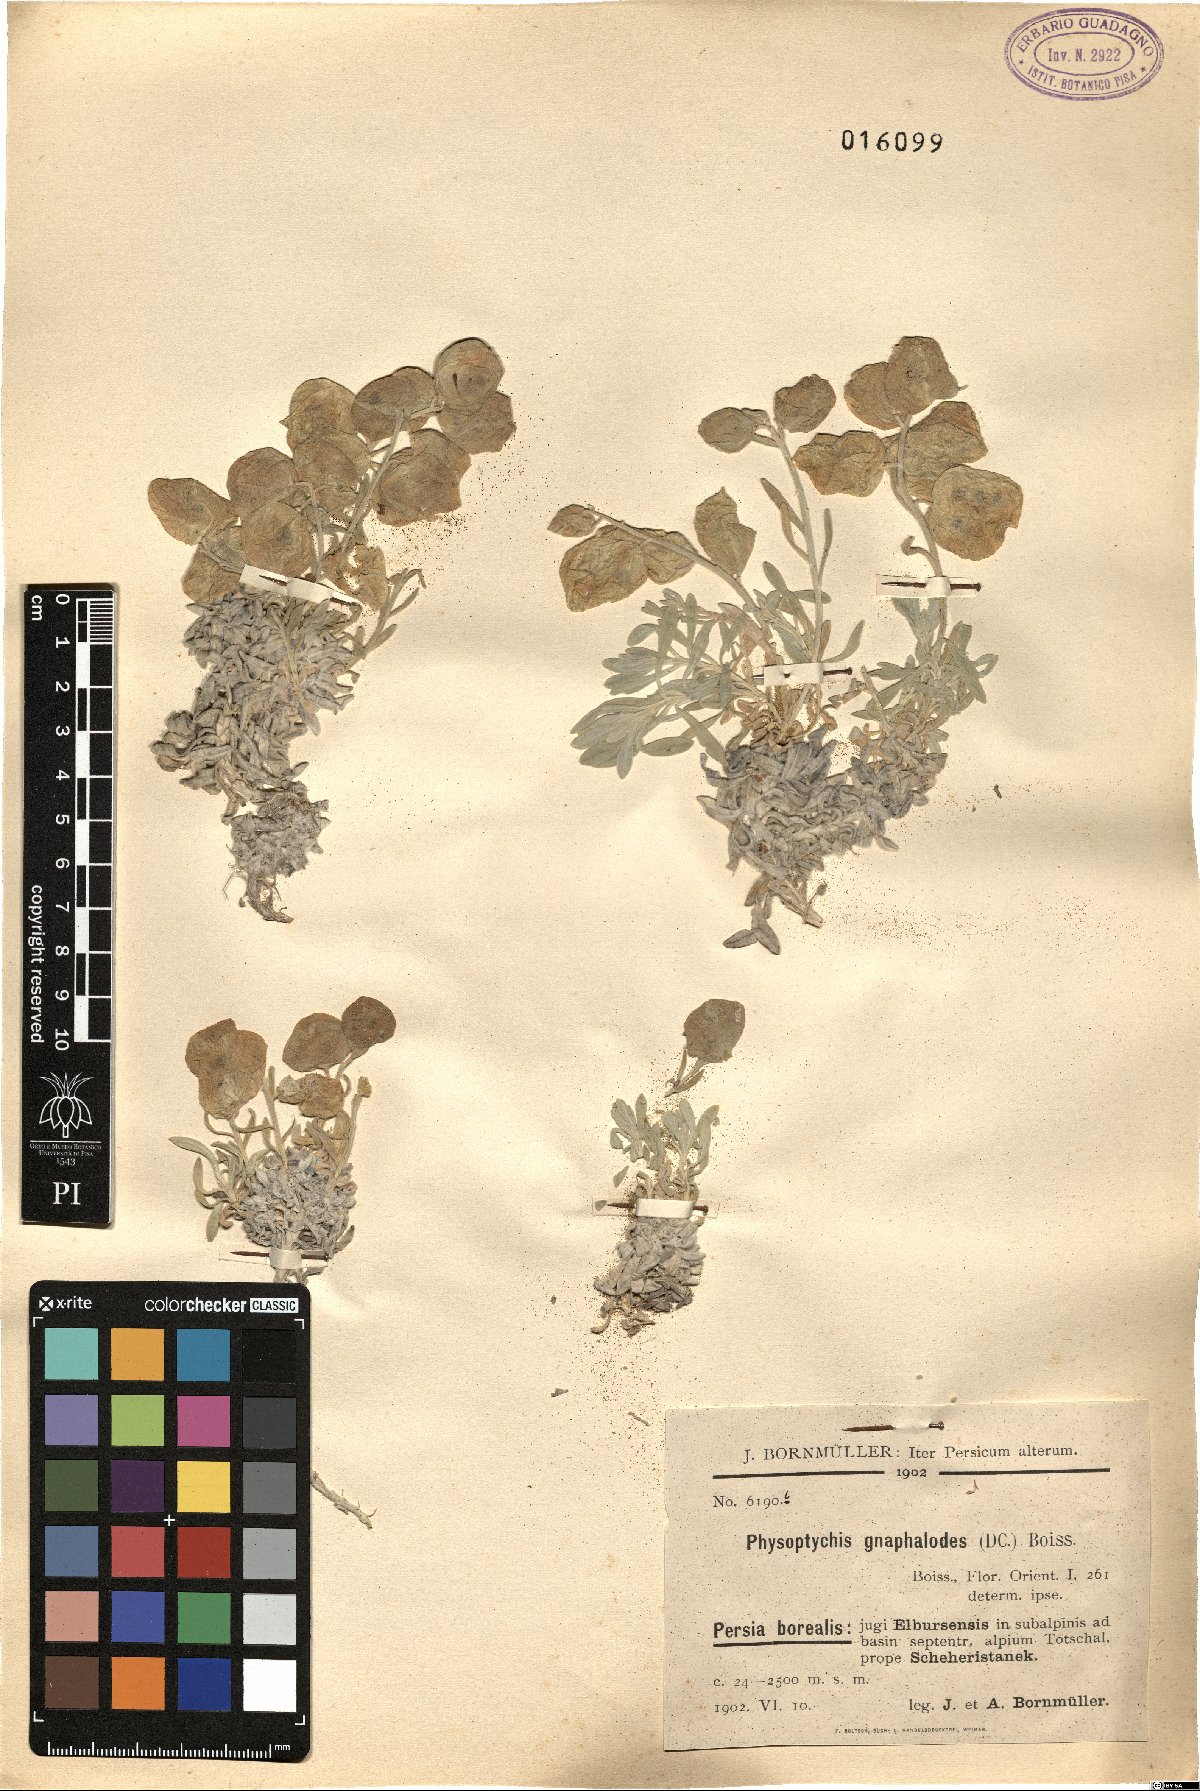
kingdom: Plantae
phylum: Tracheophyta
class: Magnoliopsida
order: Brassicales
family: Brassicaceae
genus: Physoptychis
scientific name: Physoptychis caspica
